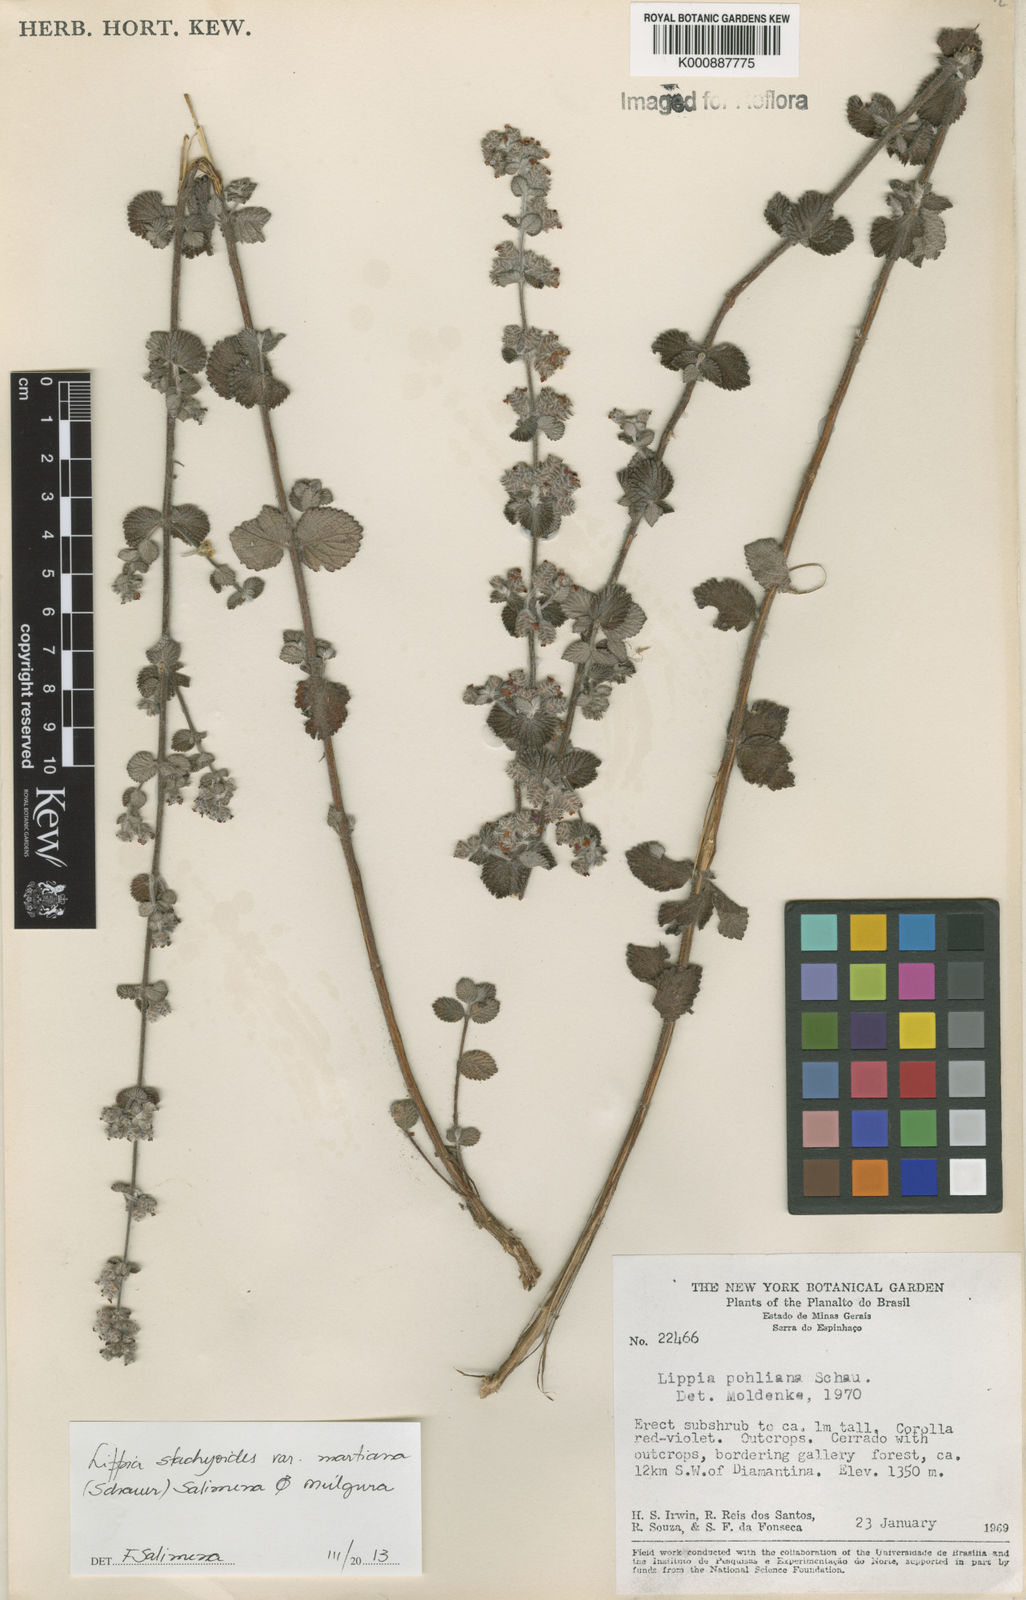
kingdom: Plantae
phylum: Tracheophyta
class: Magnoliopsida
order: Lamiales
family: Verbenaceae
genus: Lippia
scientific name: Lippia stachyoides
